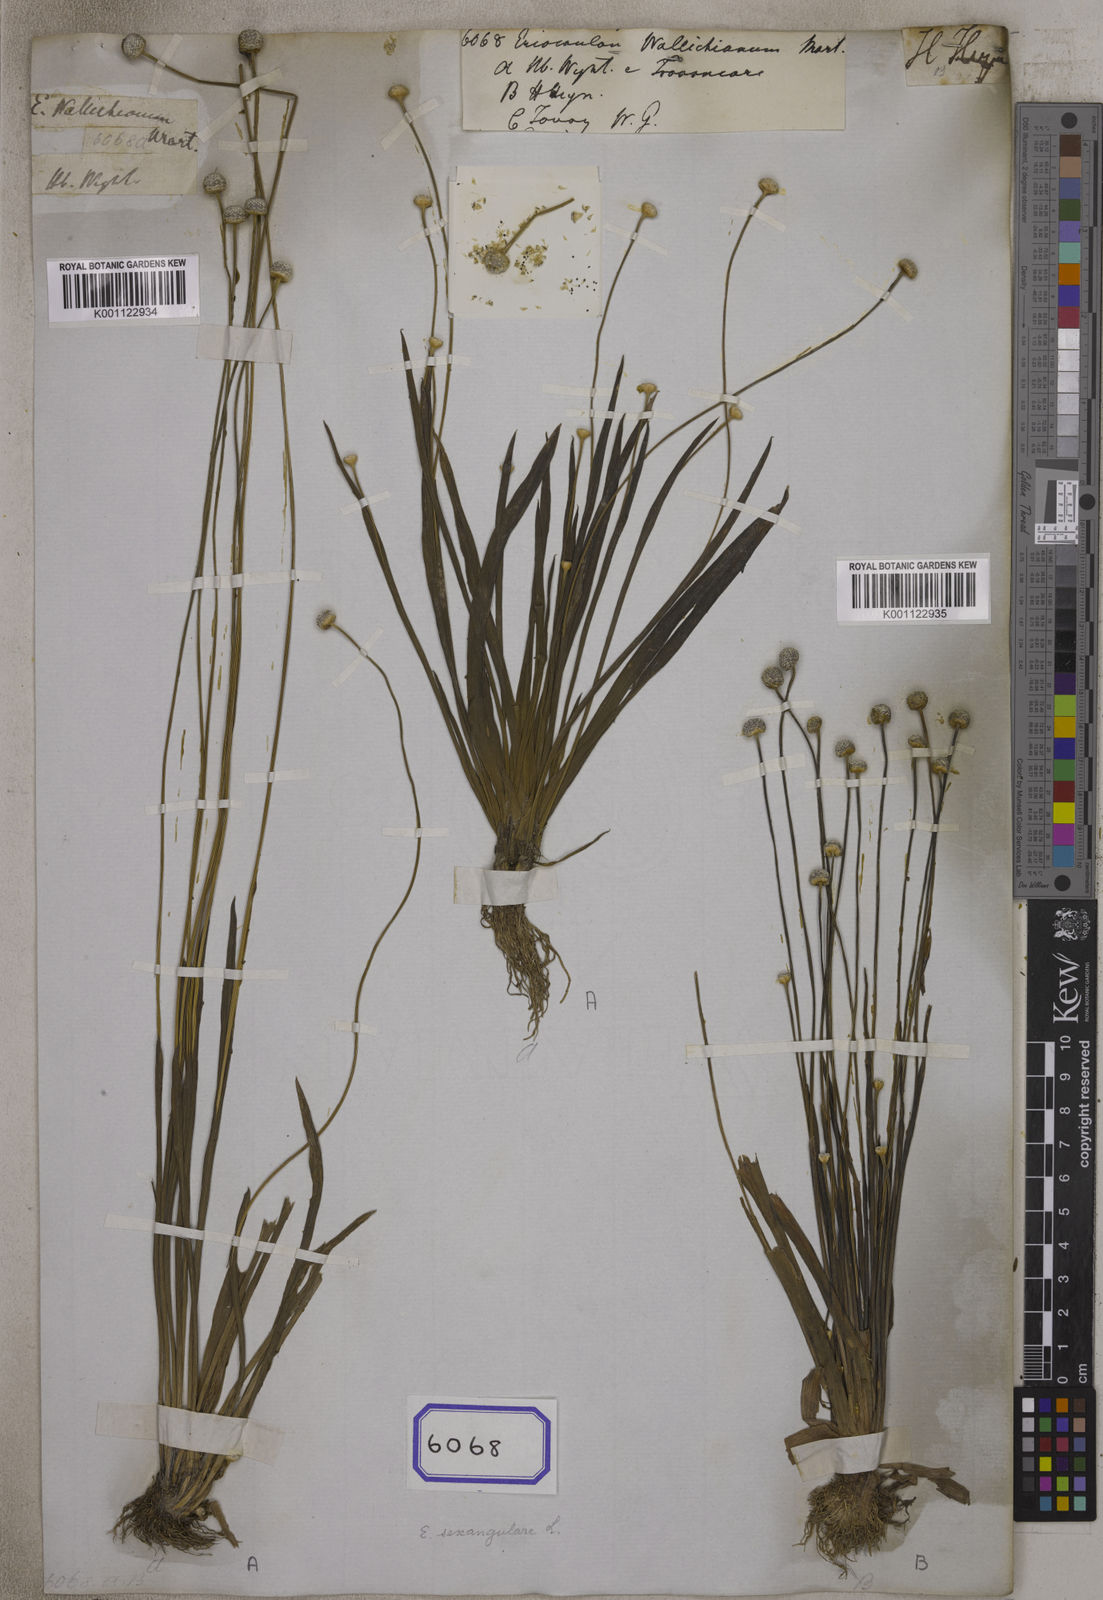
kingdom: Plantae
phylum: Tracheophyta
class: Liliopsida
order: Poales
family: Eriocaulaceae
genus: Eriocaulon
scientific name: Eriocaulon sexangulare
